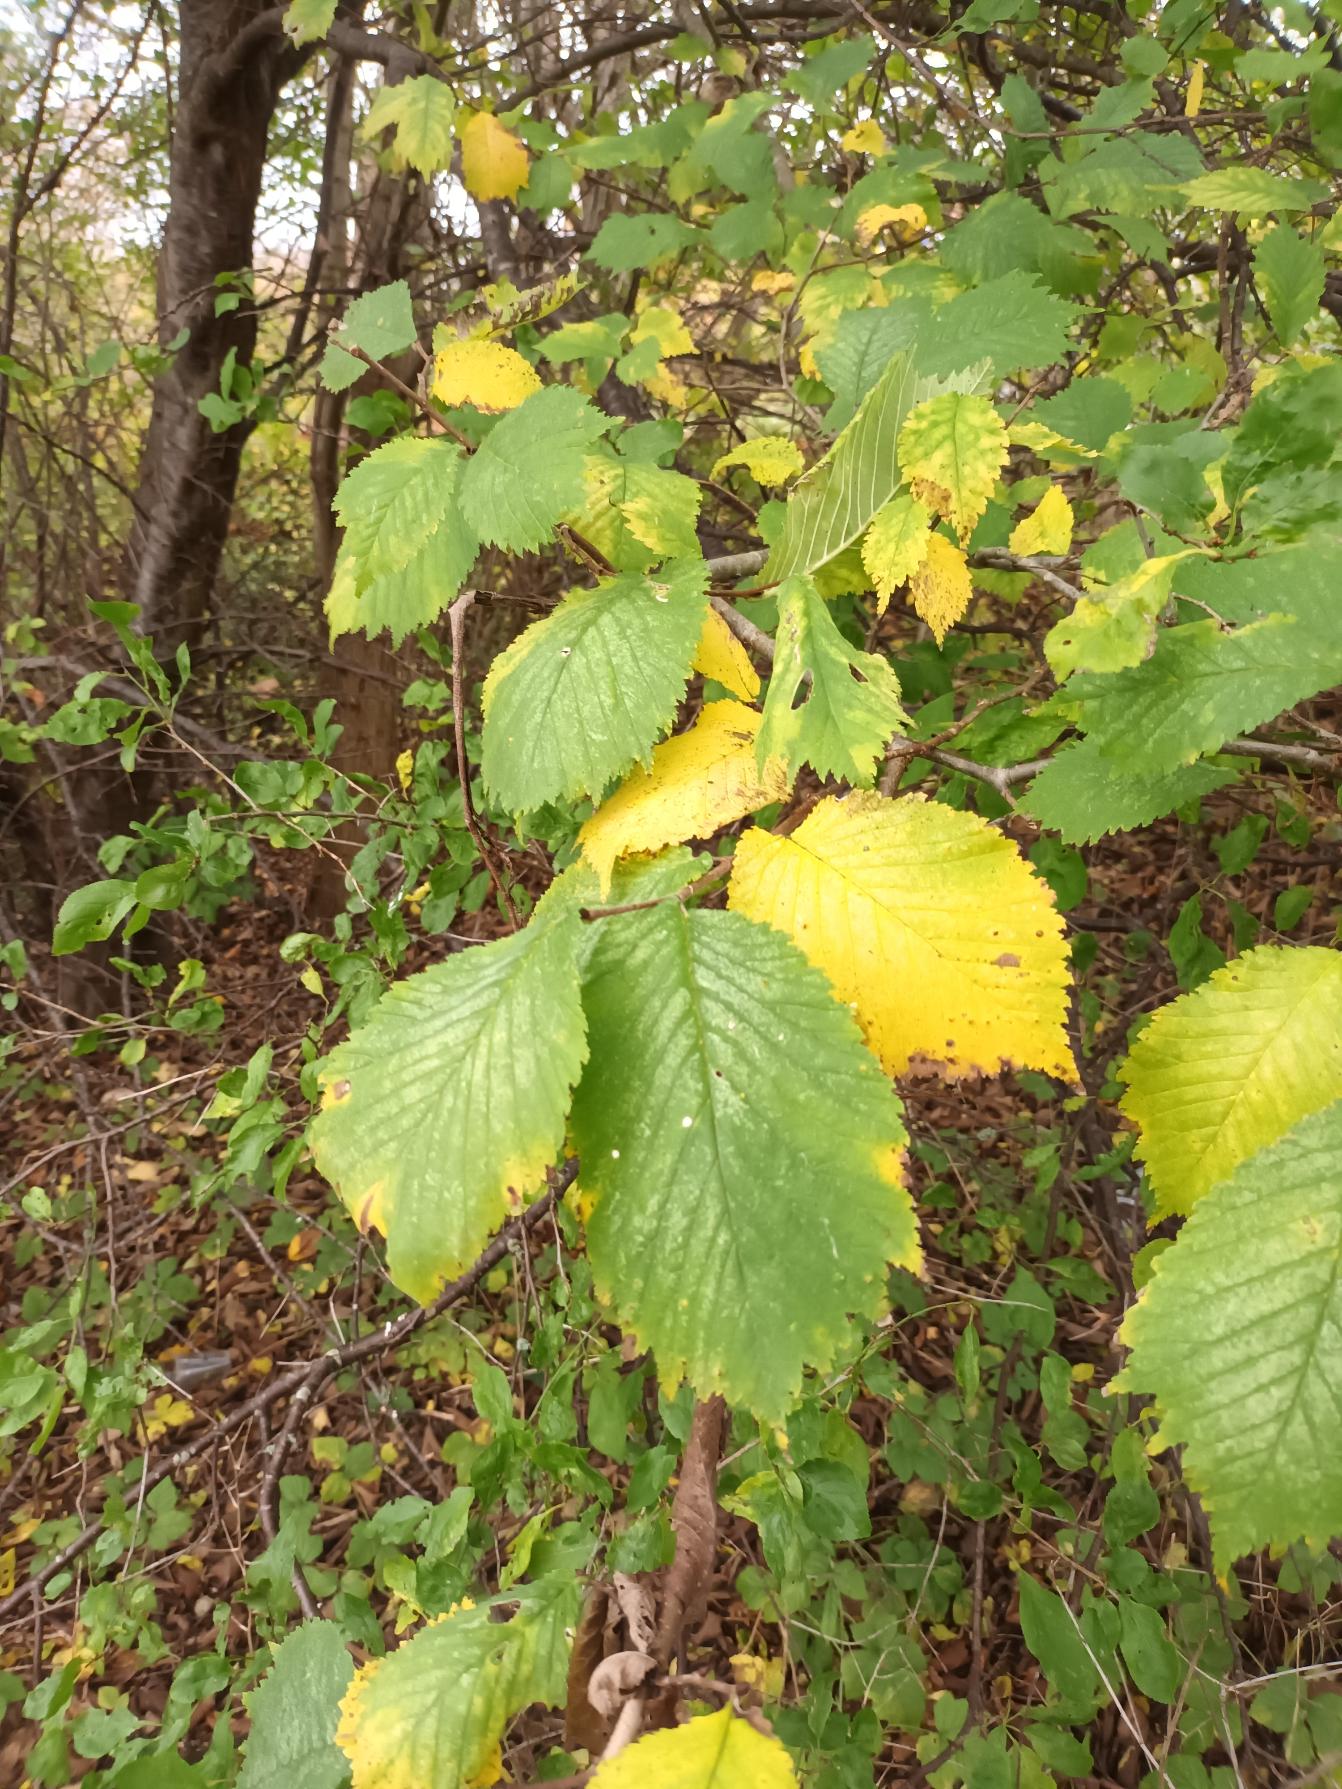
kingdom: Plantae
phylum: Tracheophyta
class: Magnoliopsida
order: Rosales
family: Ulmaceae
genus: Ulmus
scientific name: Ulmus glabra
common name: Skov-elm/storbladet elm
